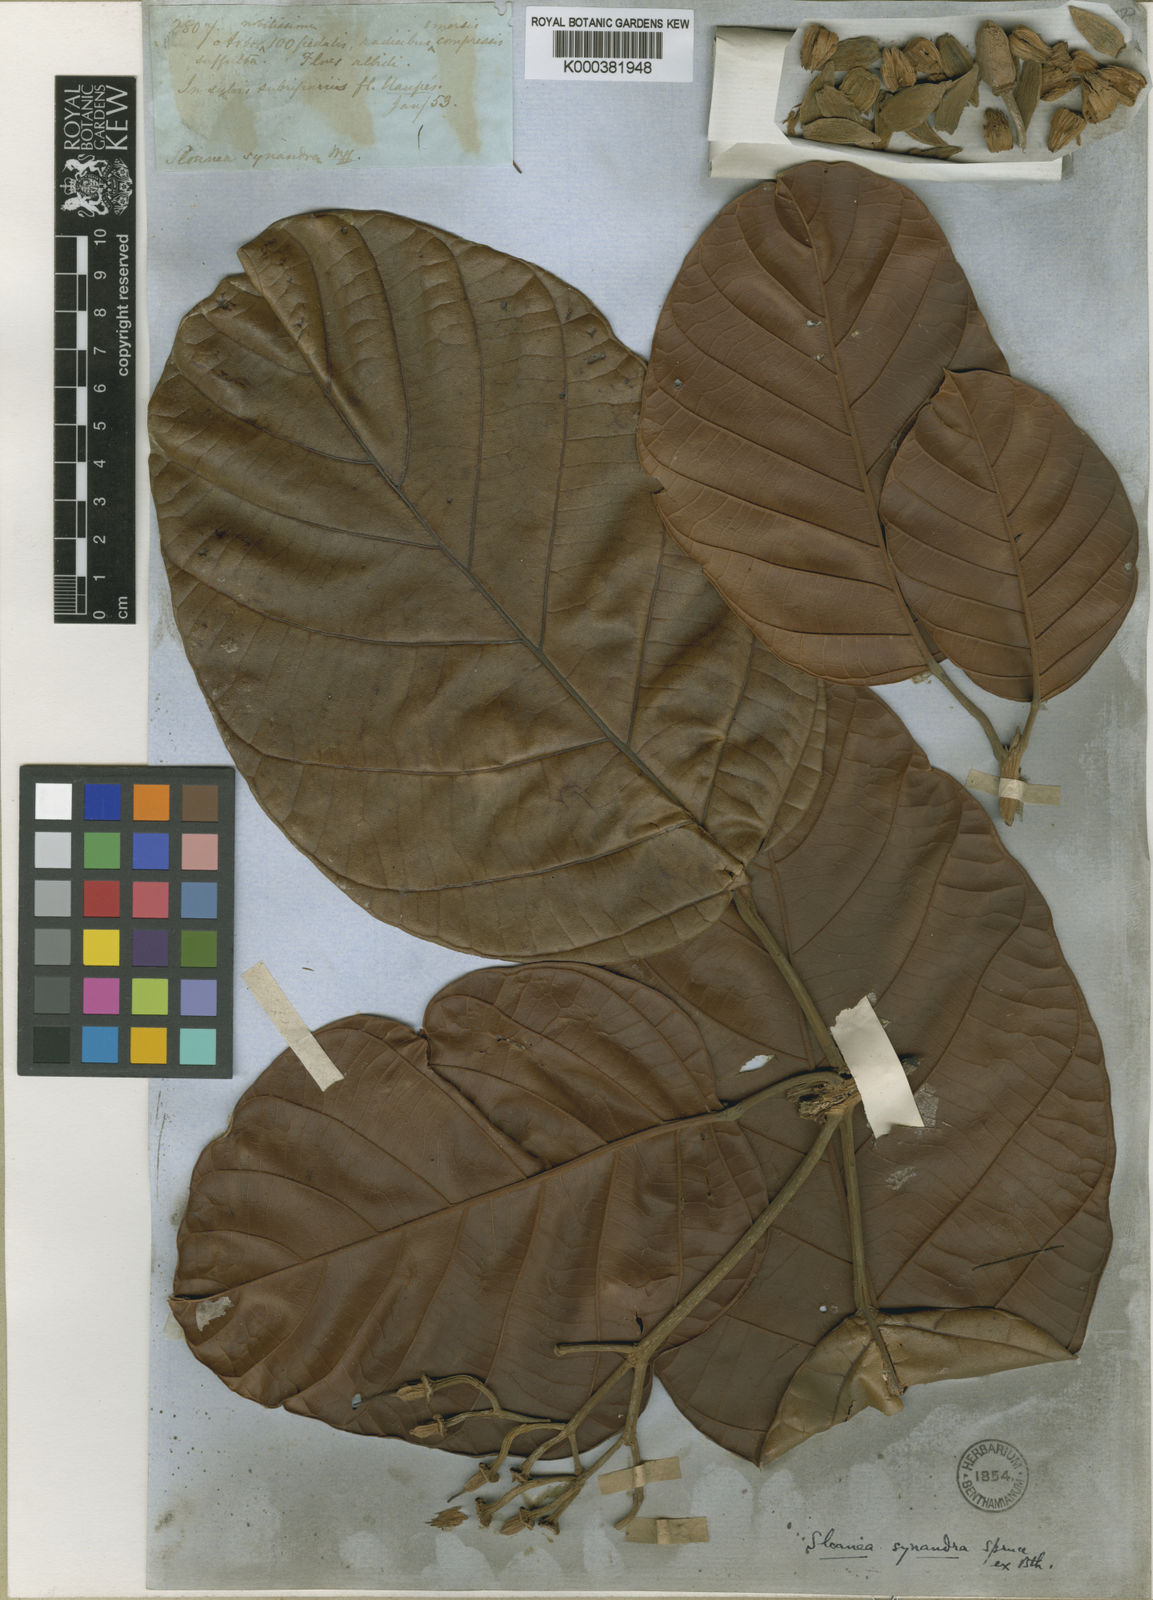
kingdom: Plantae
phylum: Tracheophyta
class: Magnoliopsida
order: Oxalidales
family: Elaeocarpaceae
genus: Sloanea
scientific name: Sloanea synandra
